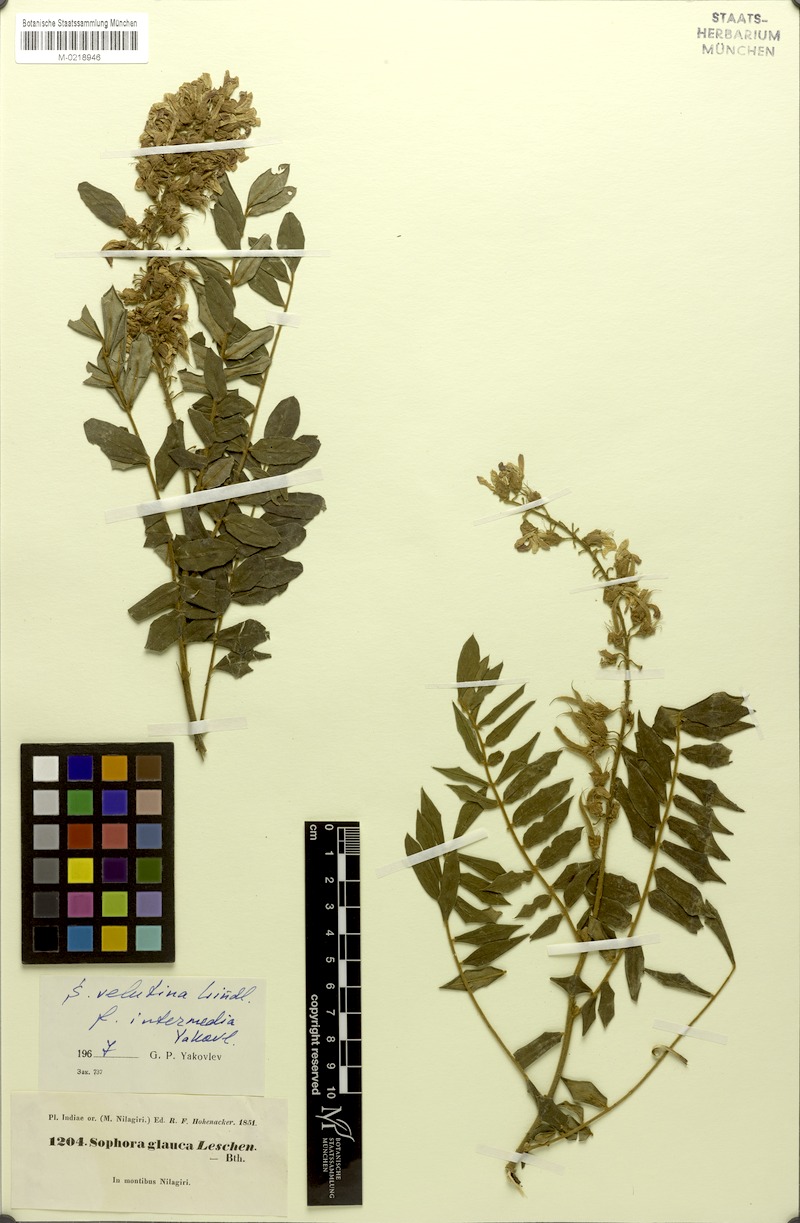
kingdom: Plantae
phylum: Tracheophyta
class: Magnoliopsida
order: Fabales
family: Fabaceae
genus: Sophora
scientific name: Sophora velutina
